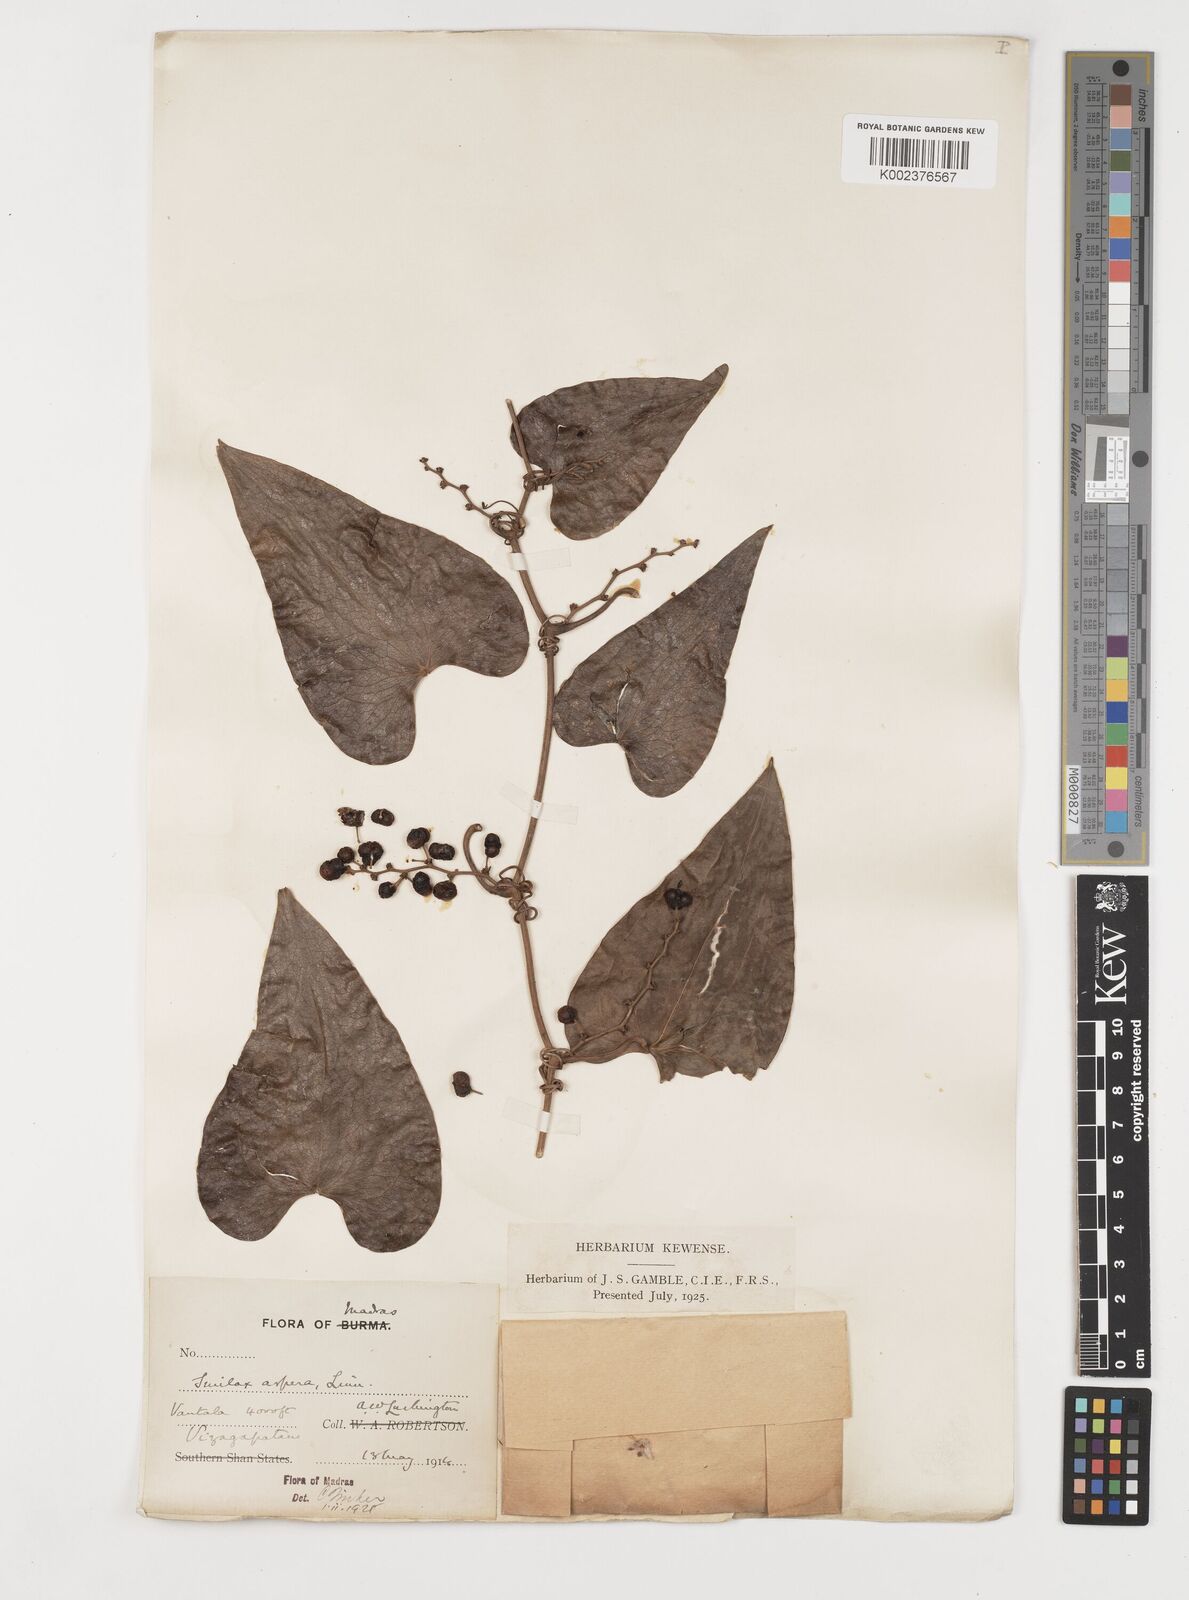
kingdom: Plantae
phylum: Tracheophyta
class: Liliopsida
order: Liliales
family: Smilacaceae
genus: Smilax
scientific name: Smilax aspera
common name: Common smilax
